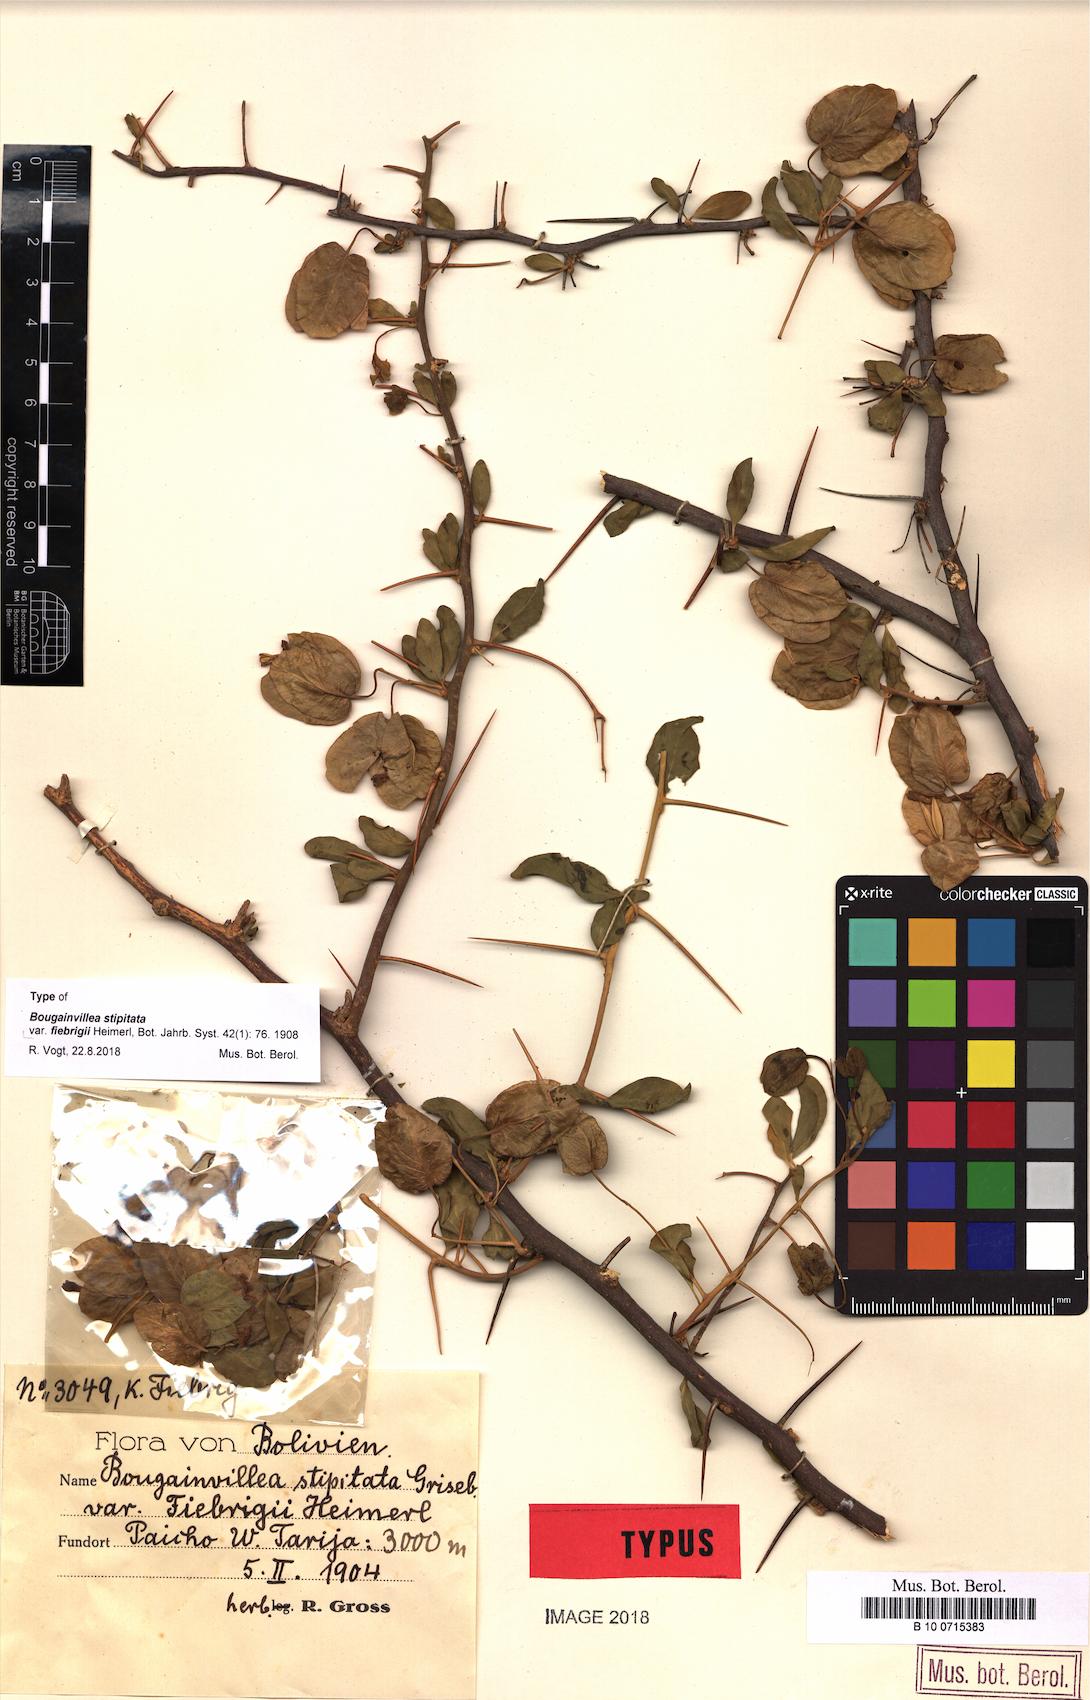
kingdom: Plantae
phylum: Tracheophyta
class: Magnoliopsida
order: Caryophyllales
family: Nyctaginaceae
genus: Bougainvillea
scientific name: Bougainvillea stipitata
